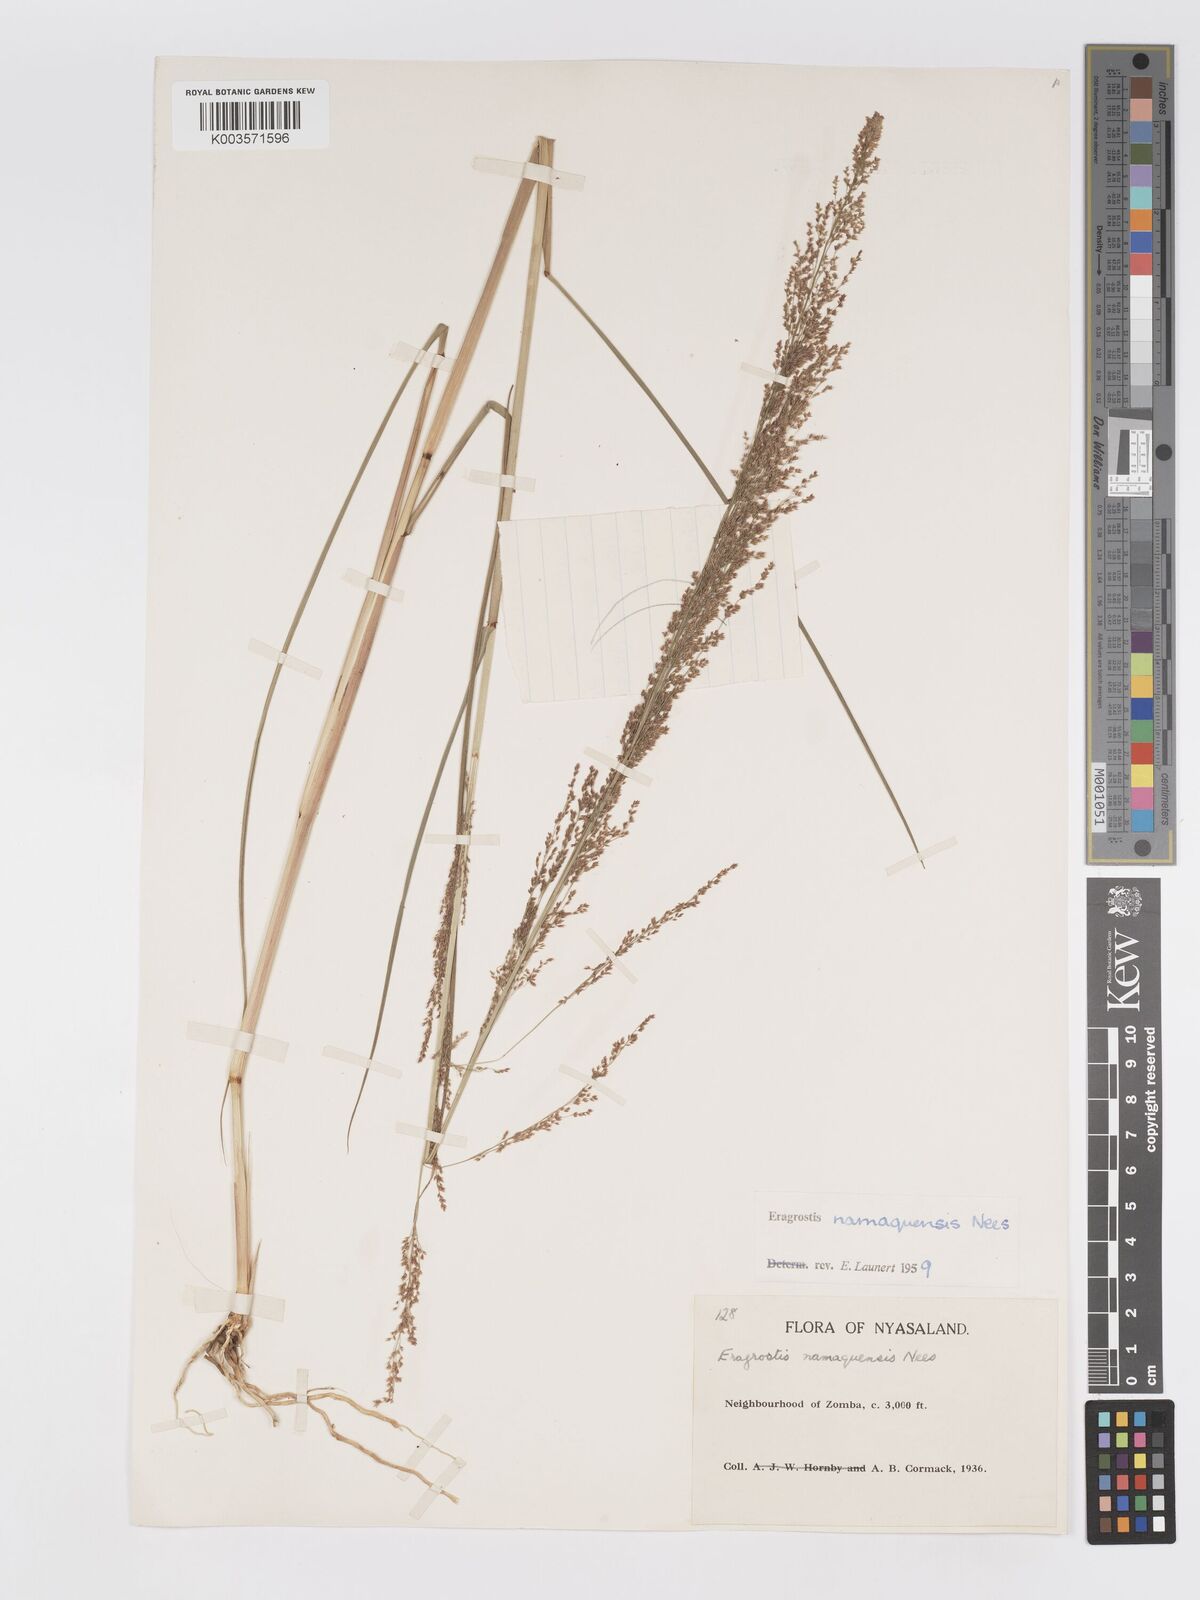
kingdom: Plantae
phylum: Tracheophyta
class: Liliopsida
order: Poales
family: Poaceae
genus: Eragrostis
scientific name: Eragrostis japonica
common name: Pond lovegrass
